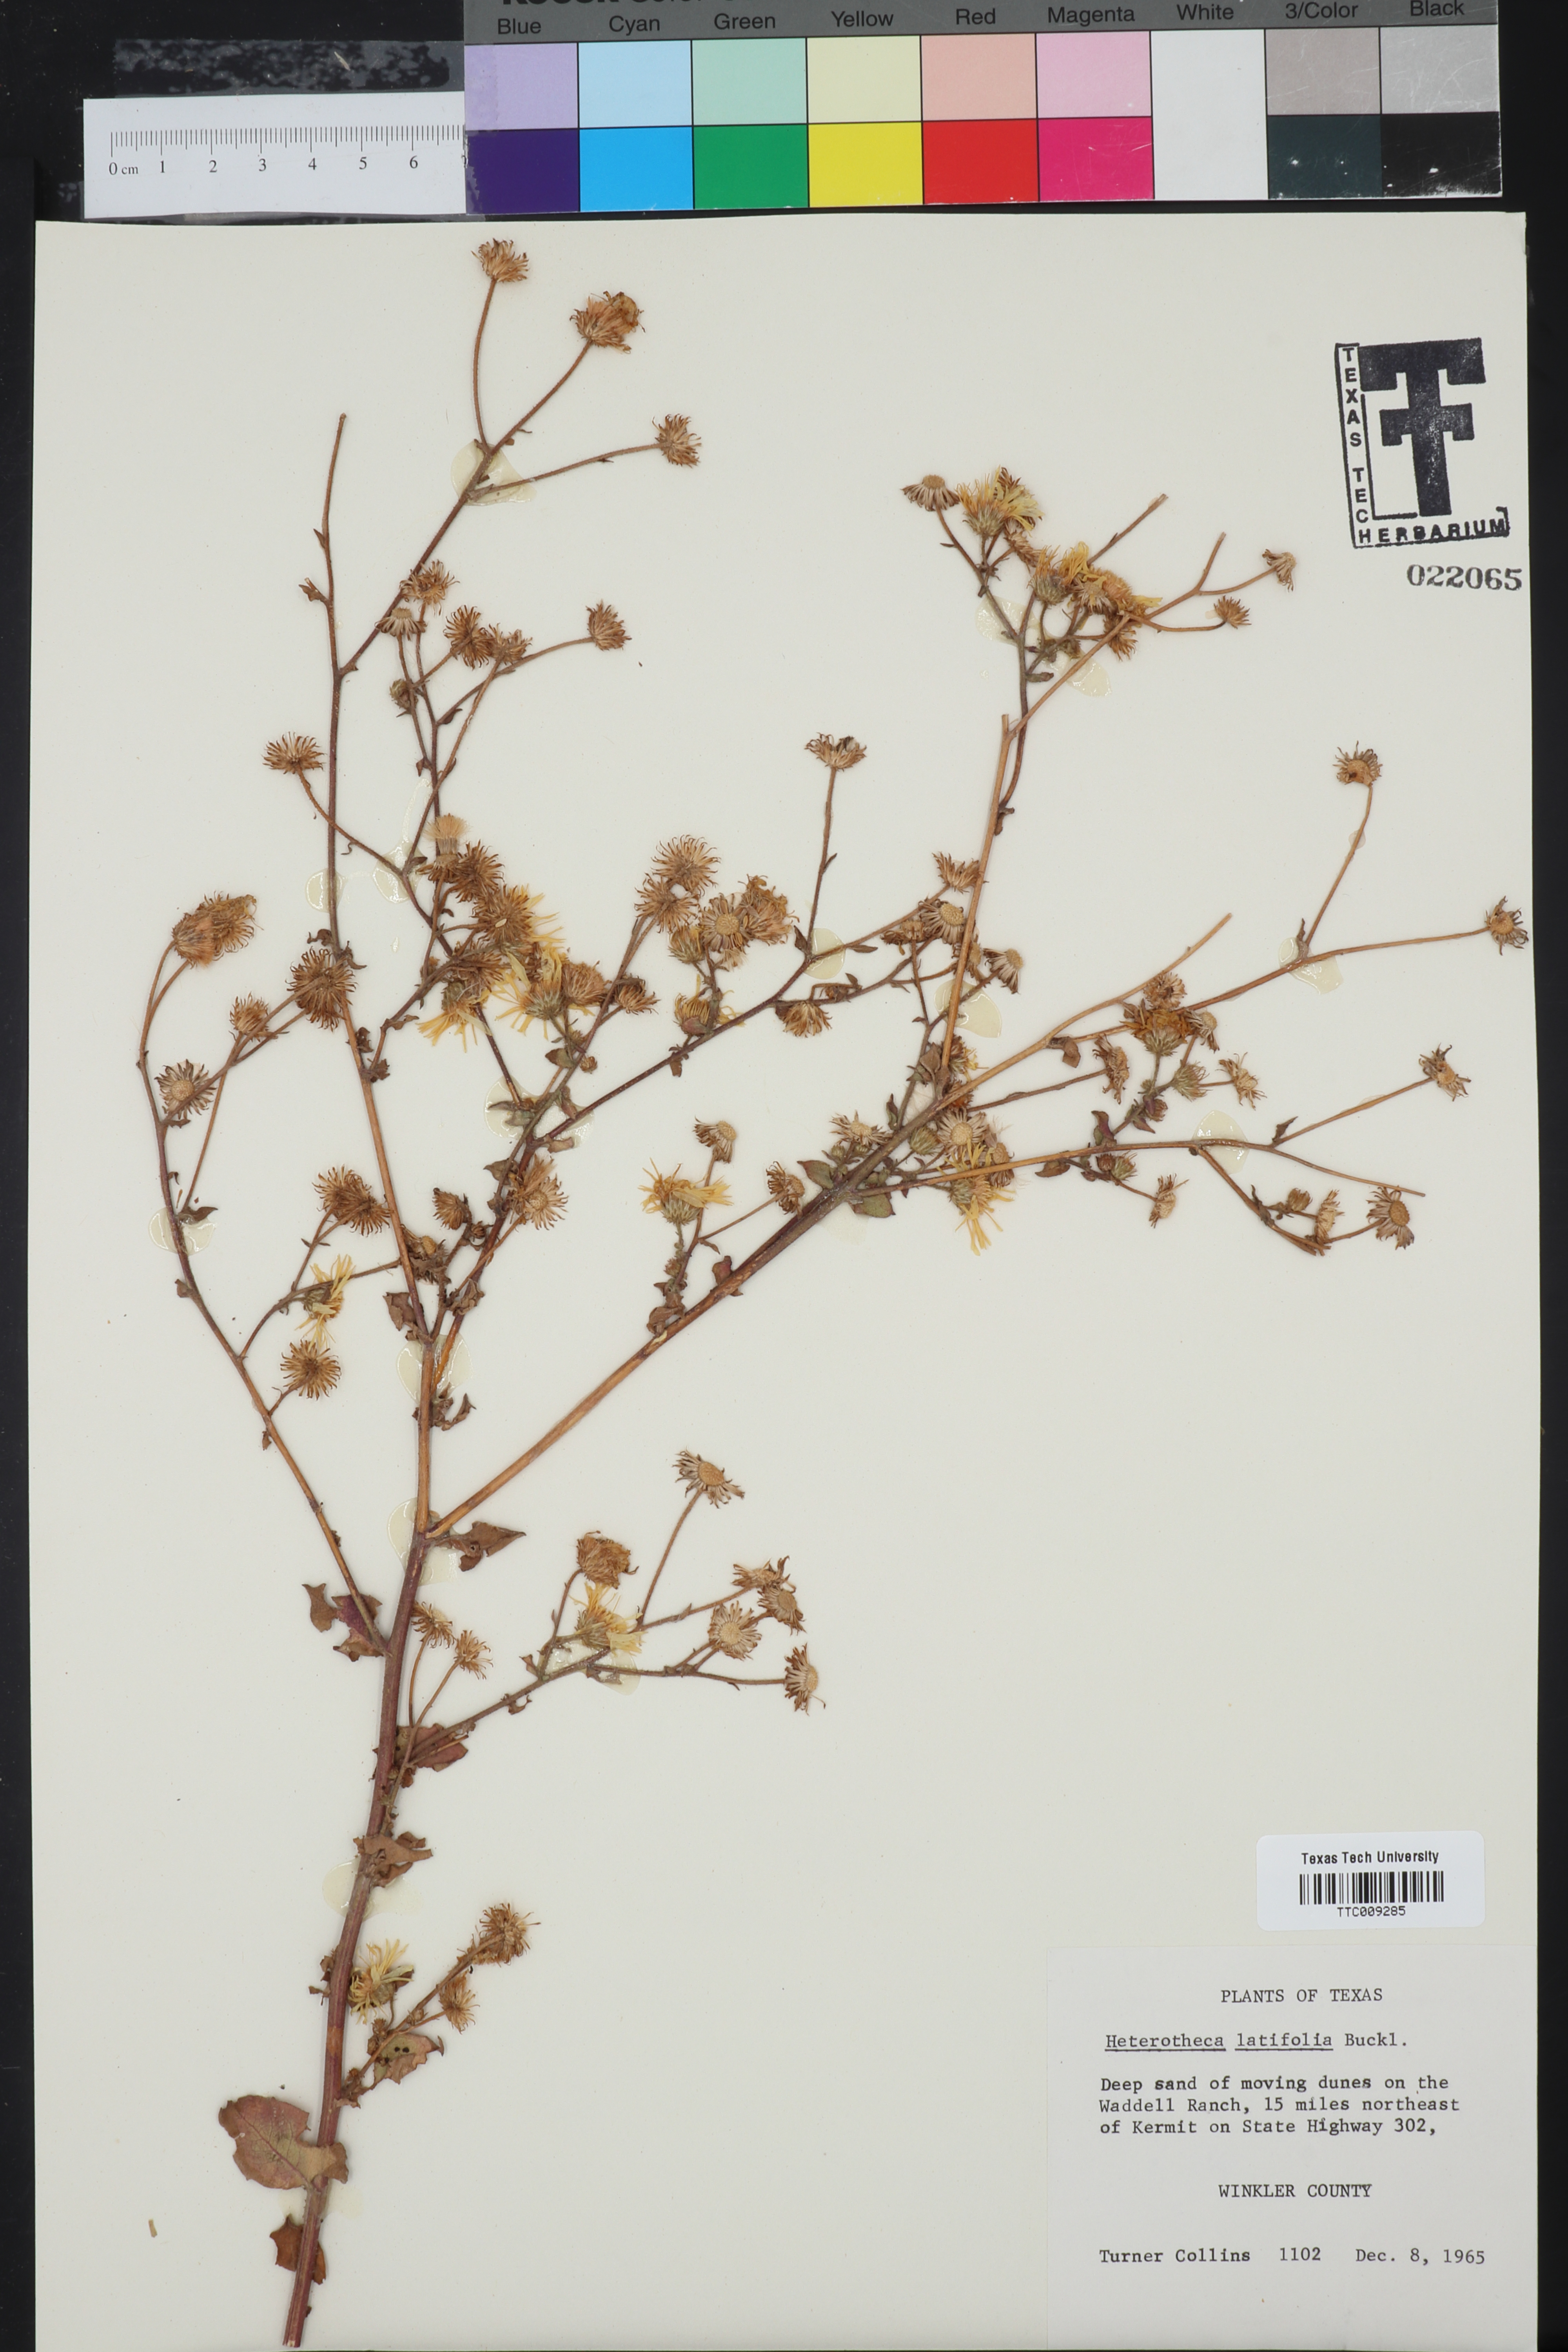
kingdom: Plantae
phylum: Tracheophyta
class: Magnoliopsida
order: Asterales
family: Asteraceae
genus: Heterotheca
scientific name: Heterotheca subaxillaris
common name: Camphorweed
